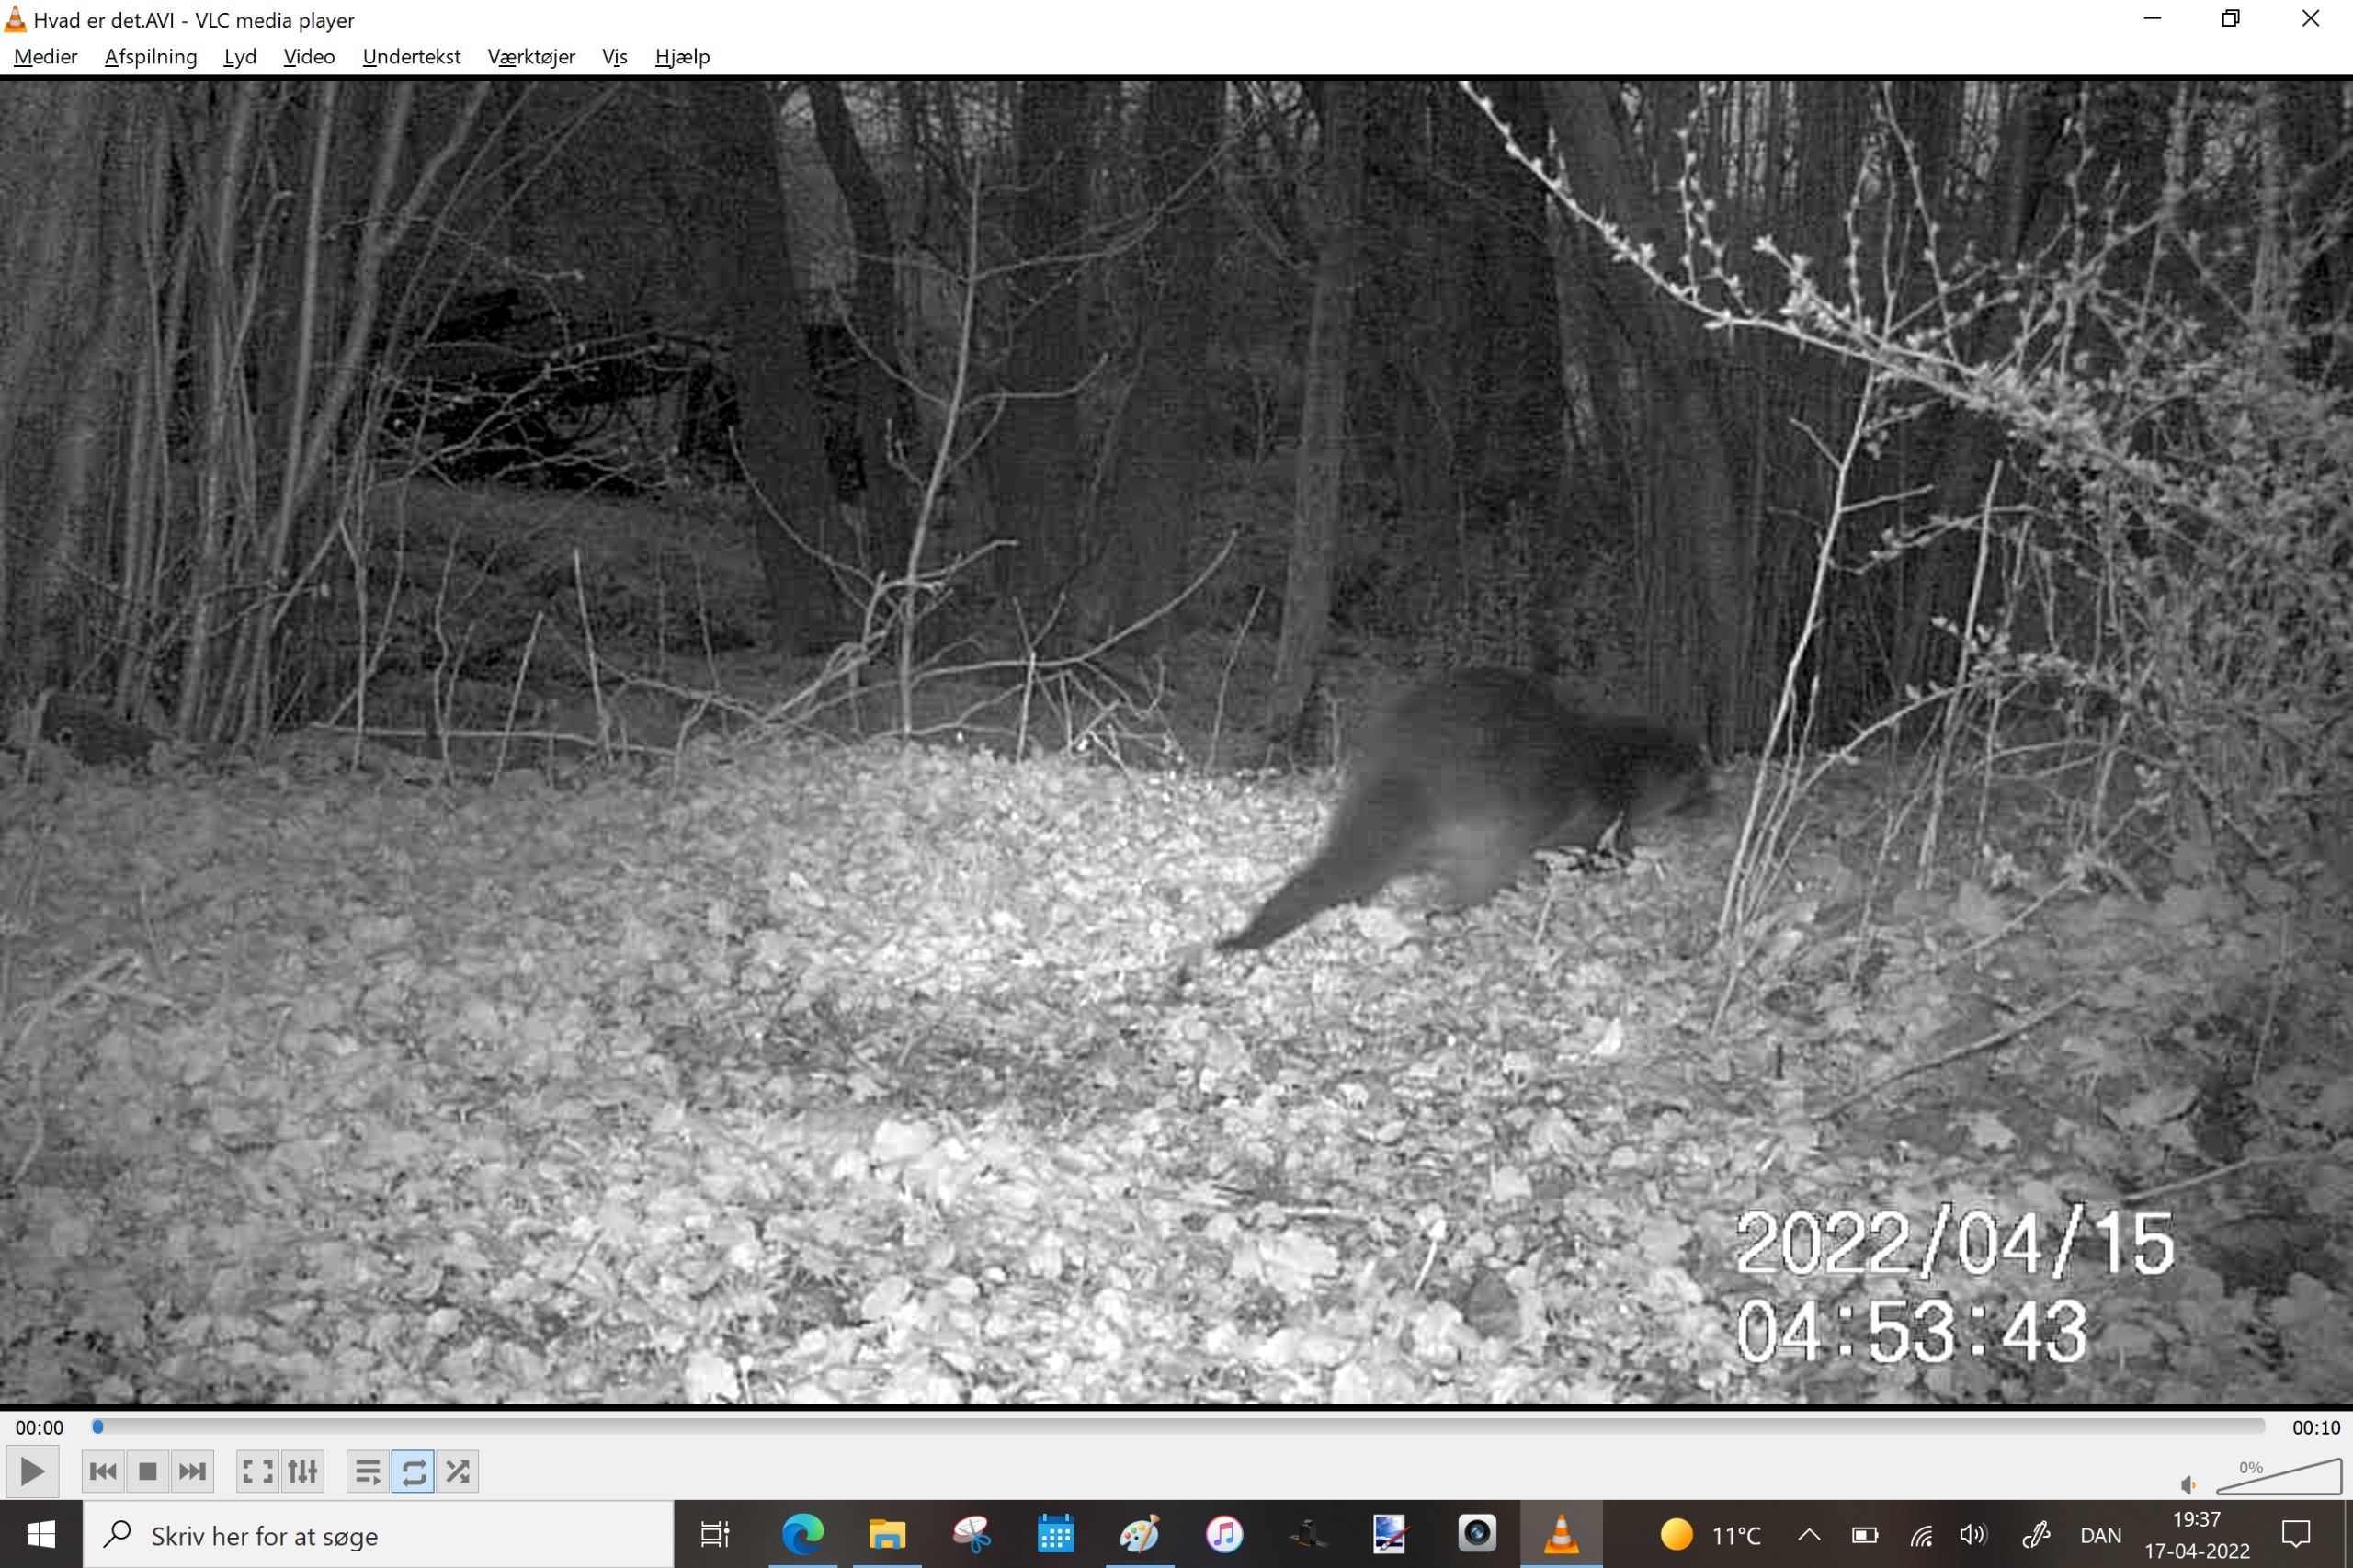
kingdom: Animalia
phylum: Chordata
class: Mammalia
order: Carnivora
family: Mustelidae
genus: Lutra
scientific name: Lutra lutra
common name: Odder
